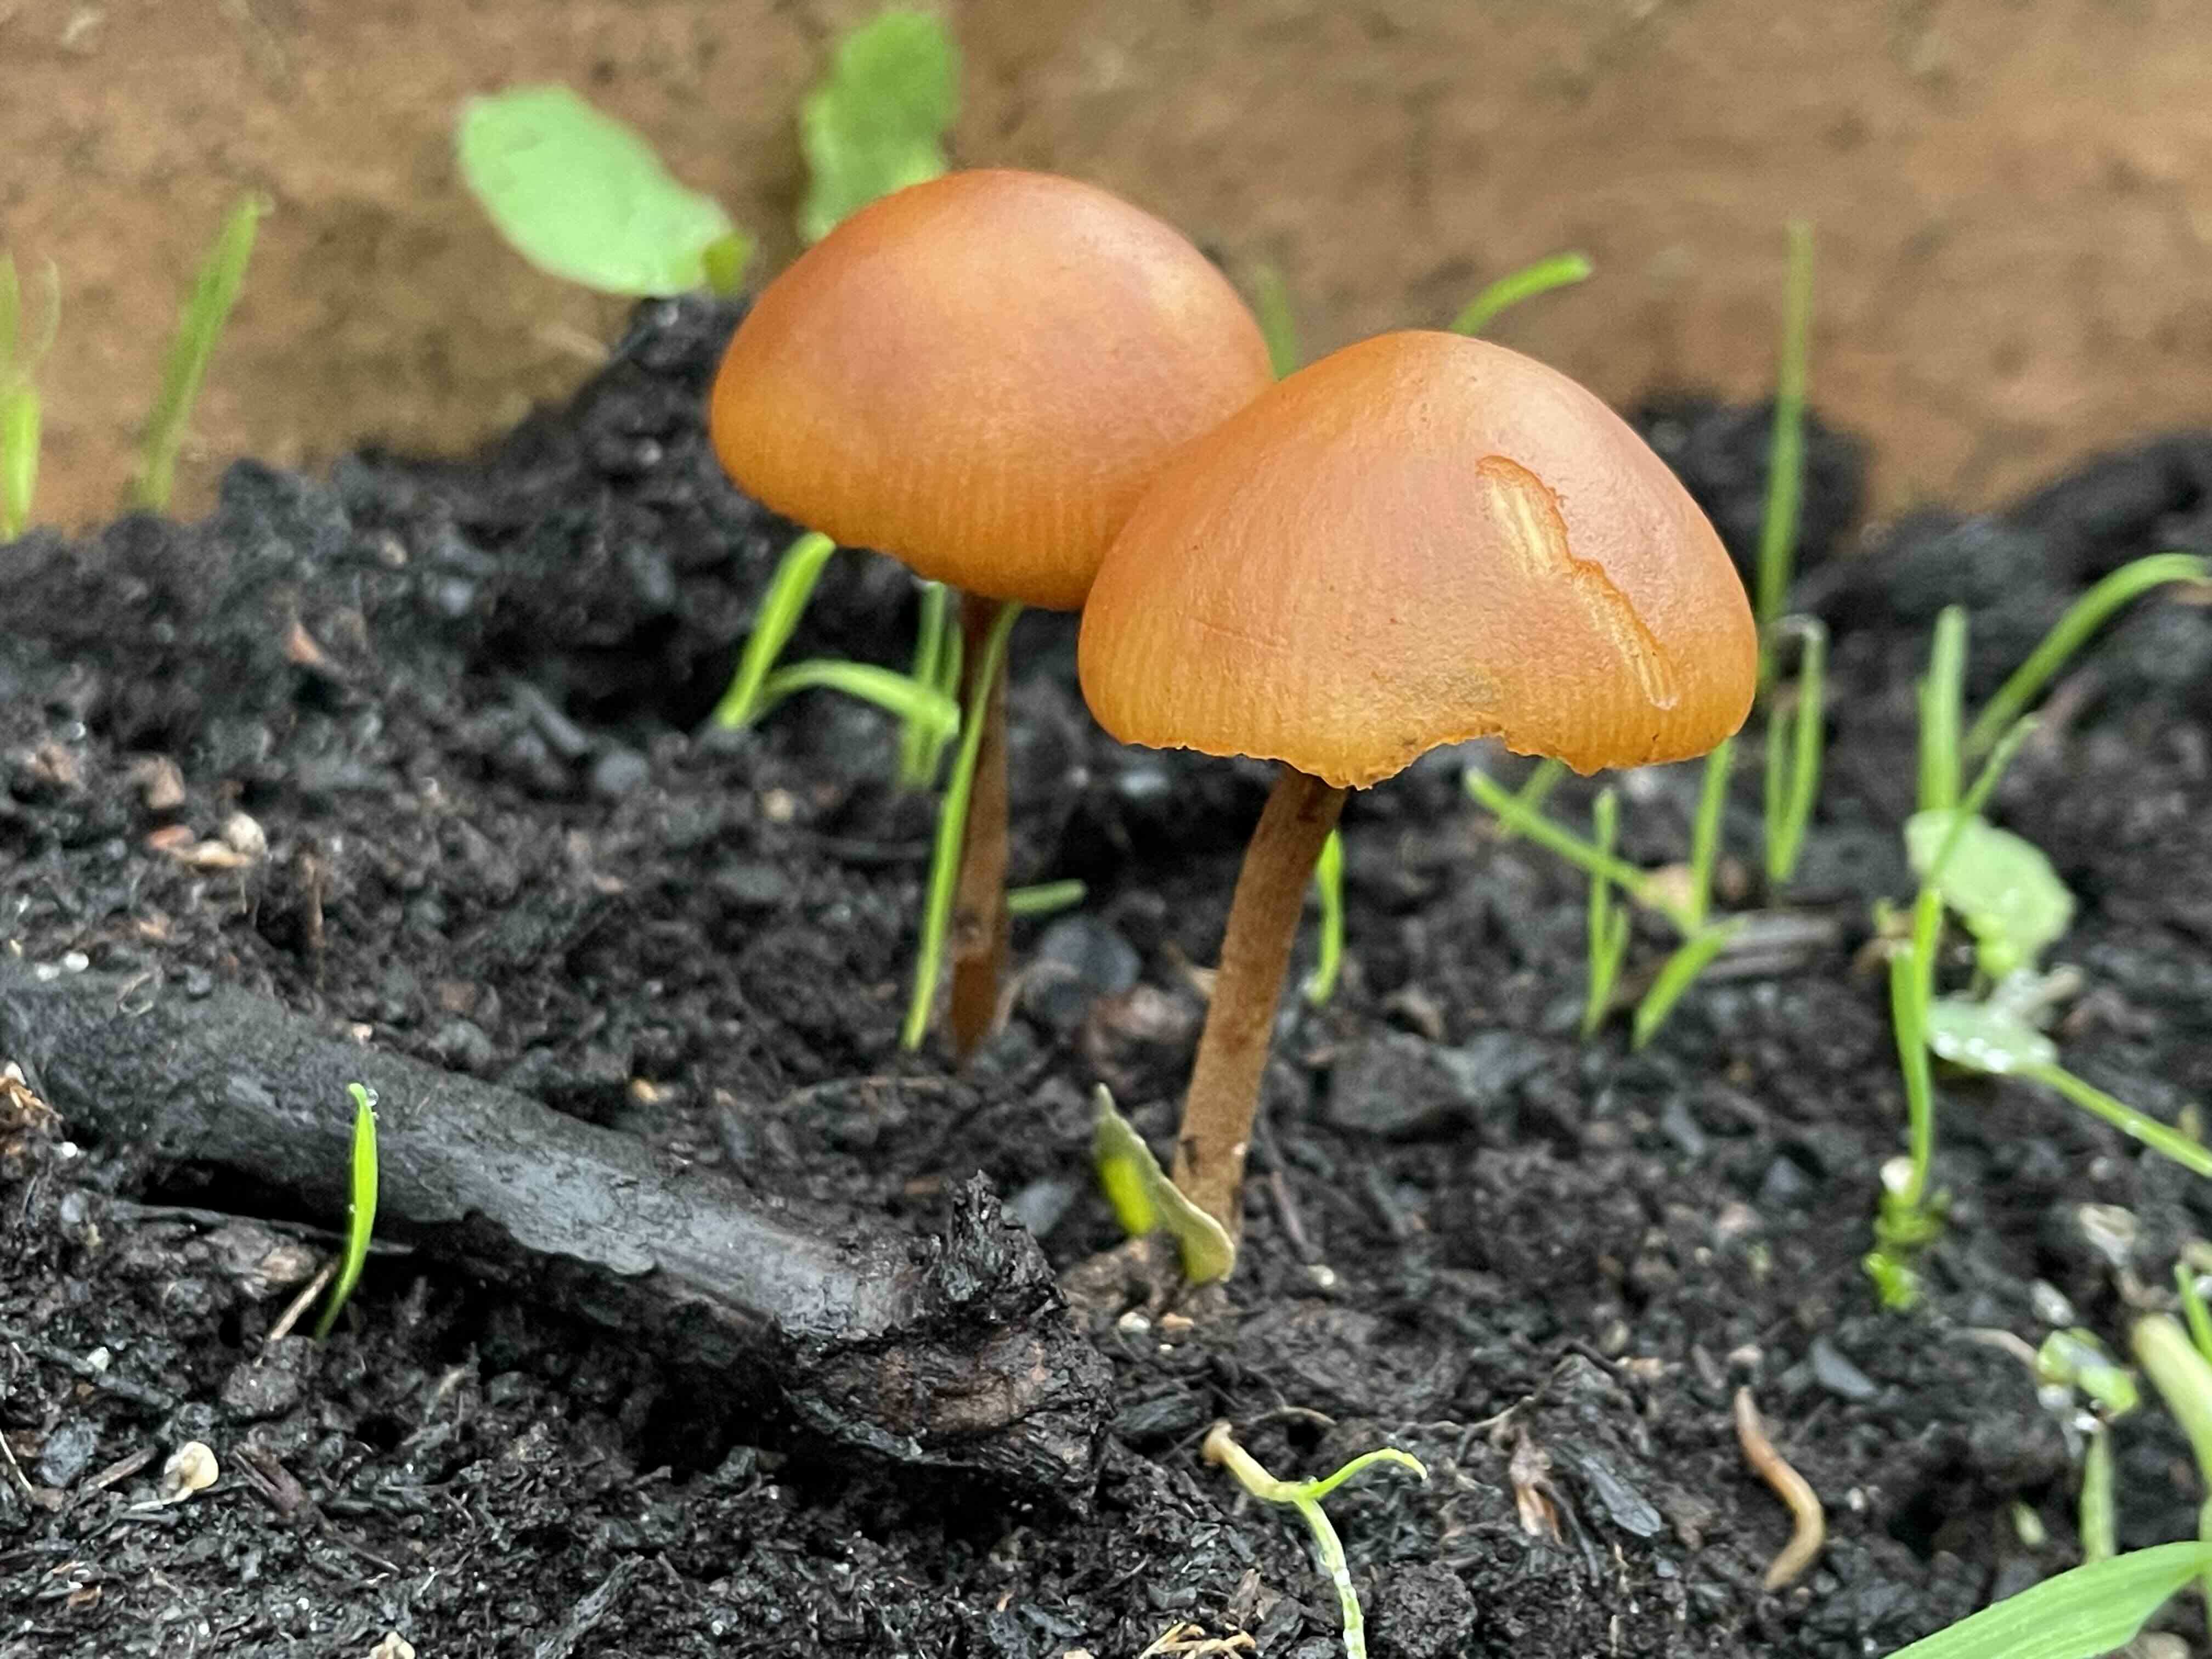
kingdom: Fungi
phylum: Basidiomycota
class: Agaricomycetes
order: Agaricales
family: Inocybaceae
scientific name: Inocybaceae
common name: trævlhatfamilien
